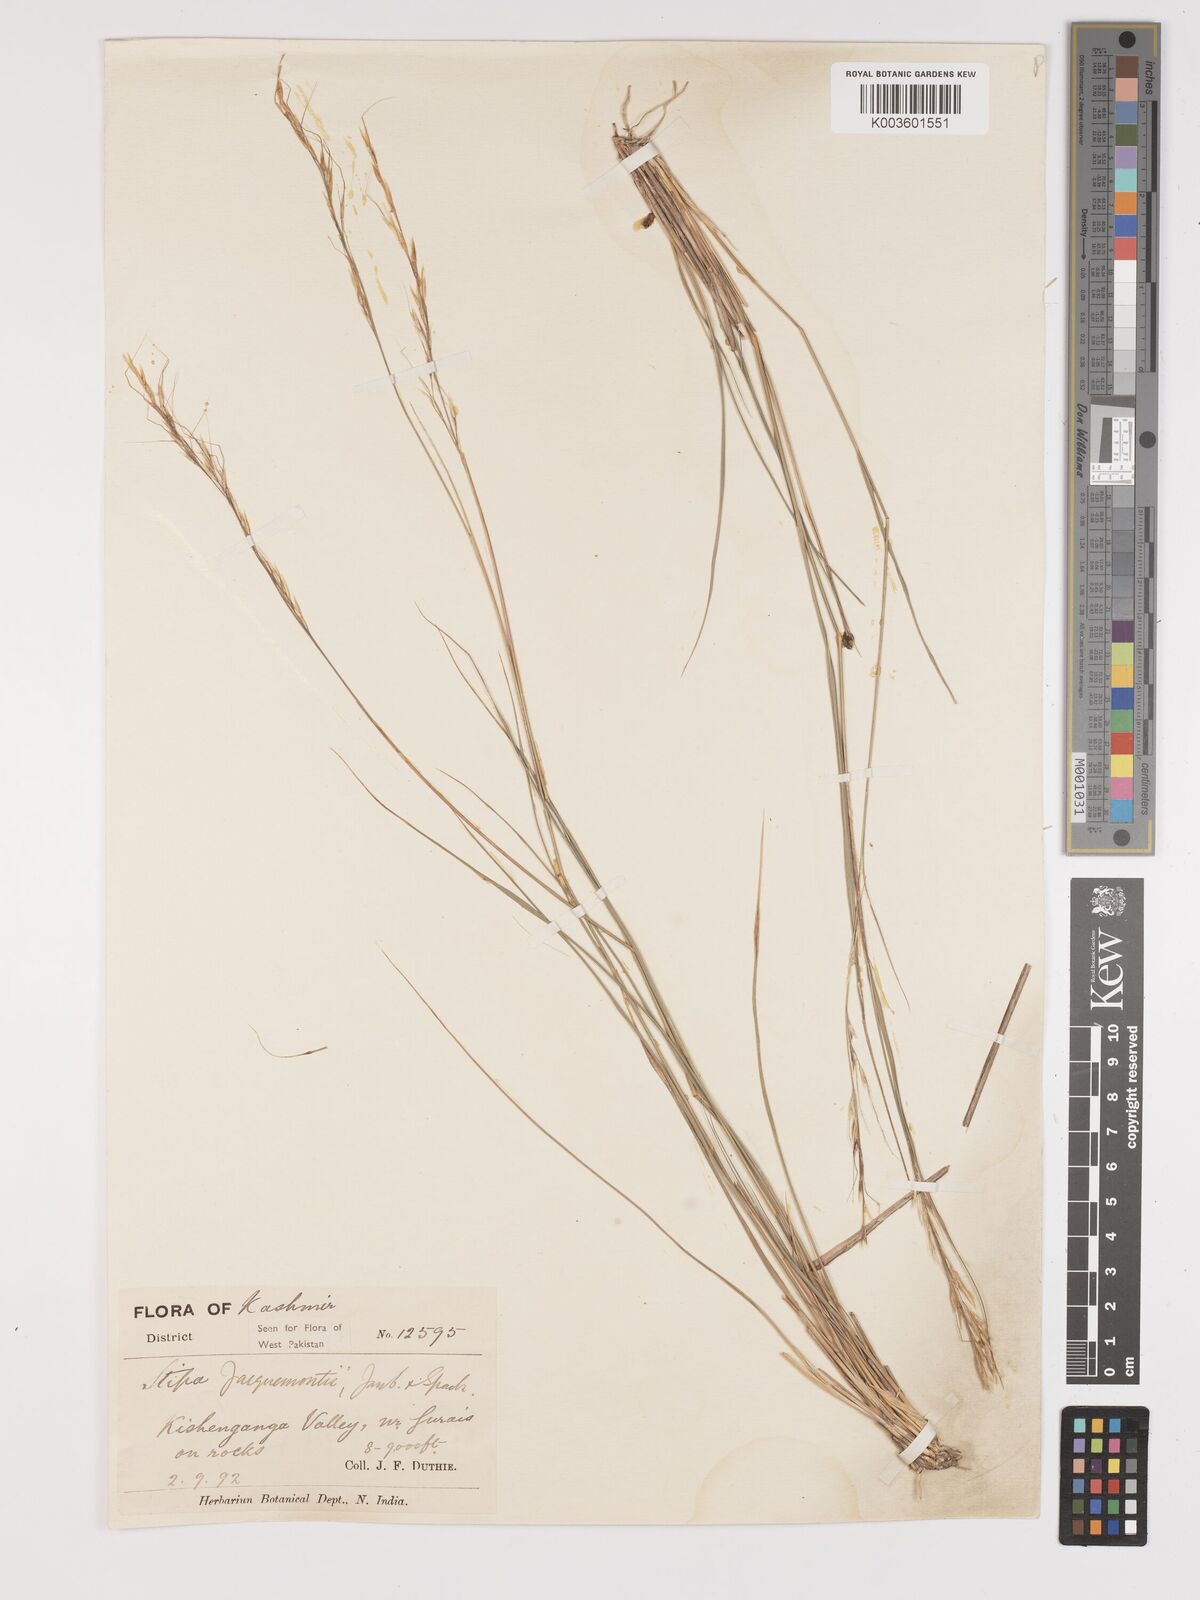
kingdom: Plantae
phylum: Tracheophyta
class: Liliopsida
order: Poales
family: Poaceae
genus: Achnatherum
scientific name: Achnatherum jacquemontii
